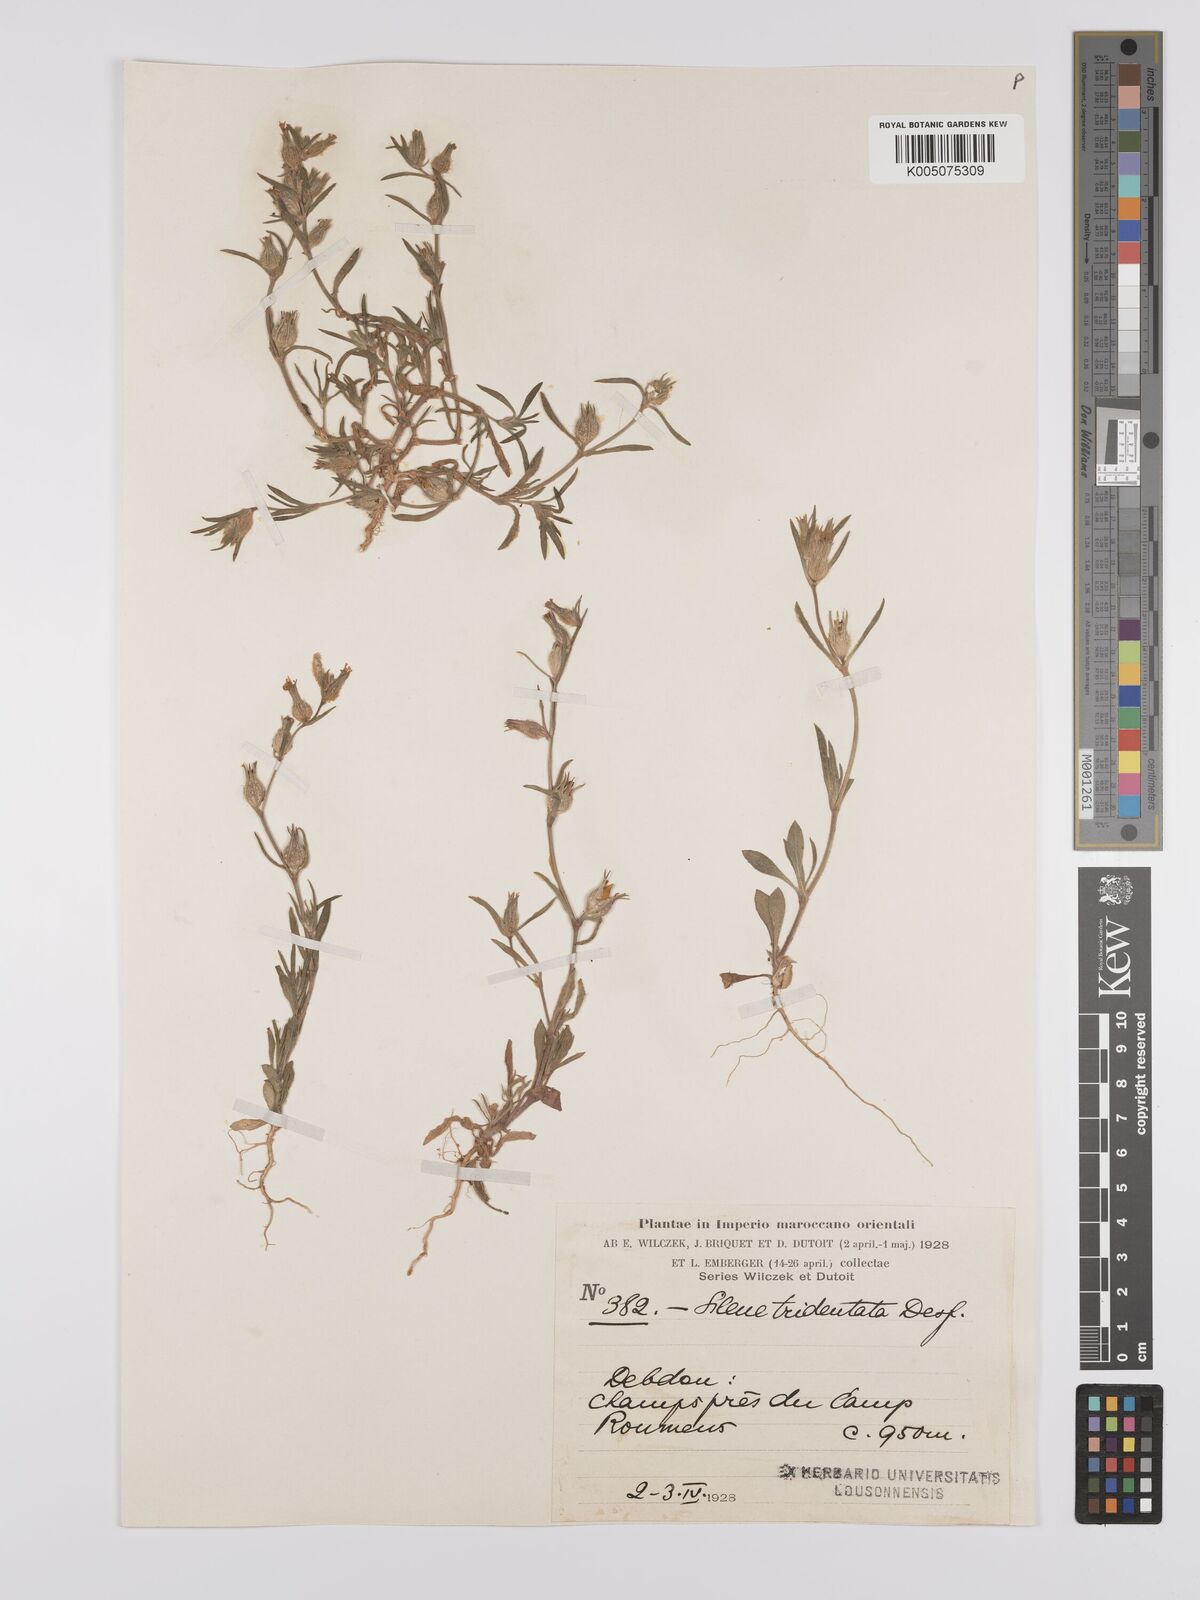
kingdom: Plantae
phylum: Tracheophyta
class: Magnoliopsida
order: Caryophyllales
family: Caryophyllaceae
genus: Silene
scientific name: Silene tridentata
